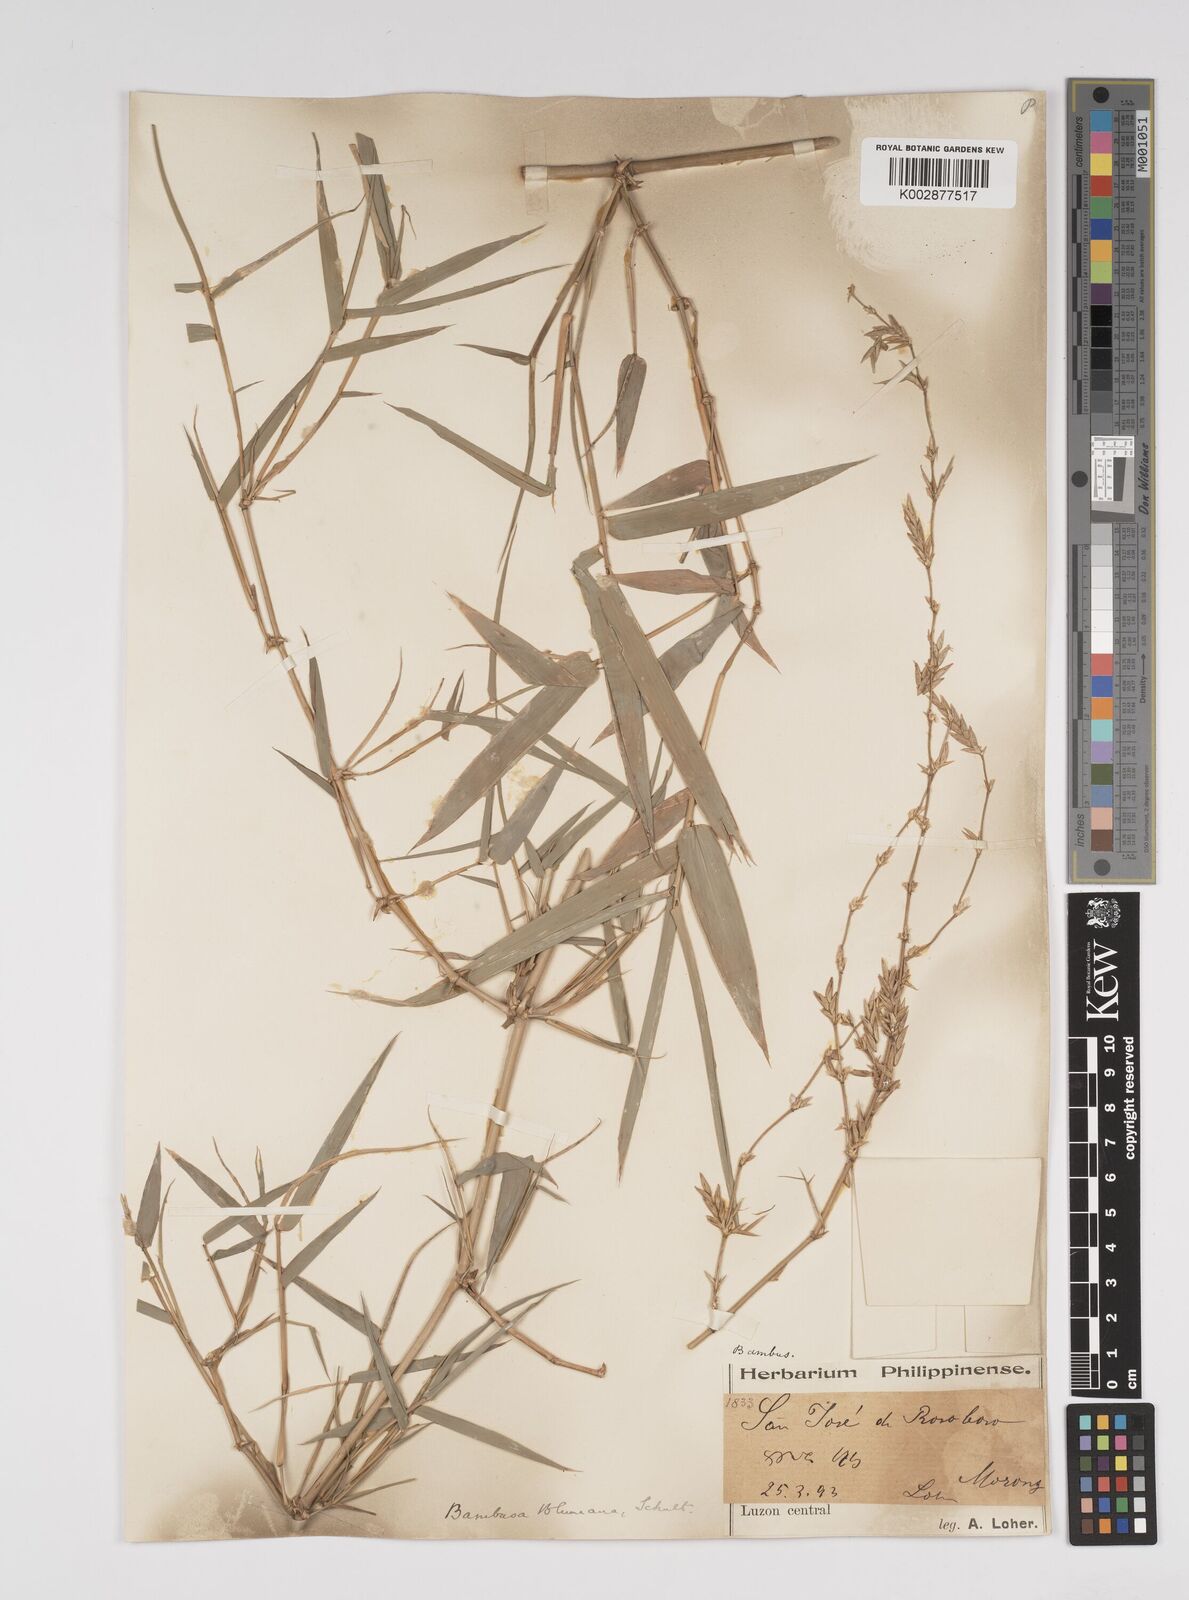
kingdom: Plantae
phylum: Tracheophyta
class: Liliopsida
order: Poales
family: Poaceae
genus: Bambusa
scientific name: Bambusa spinosa
